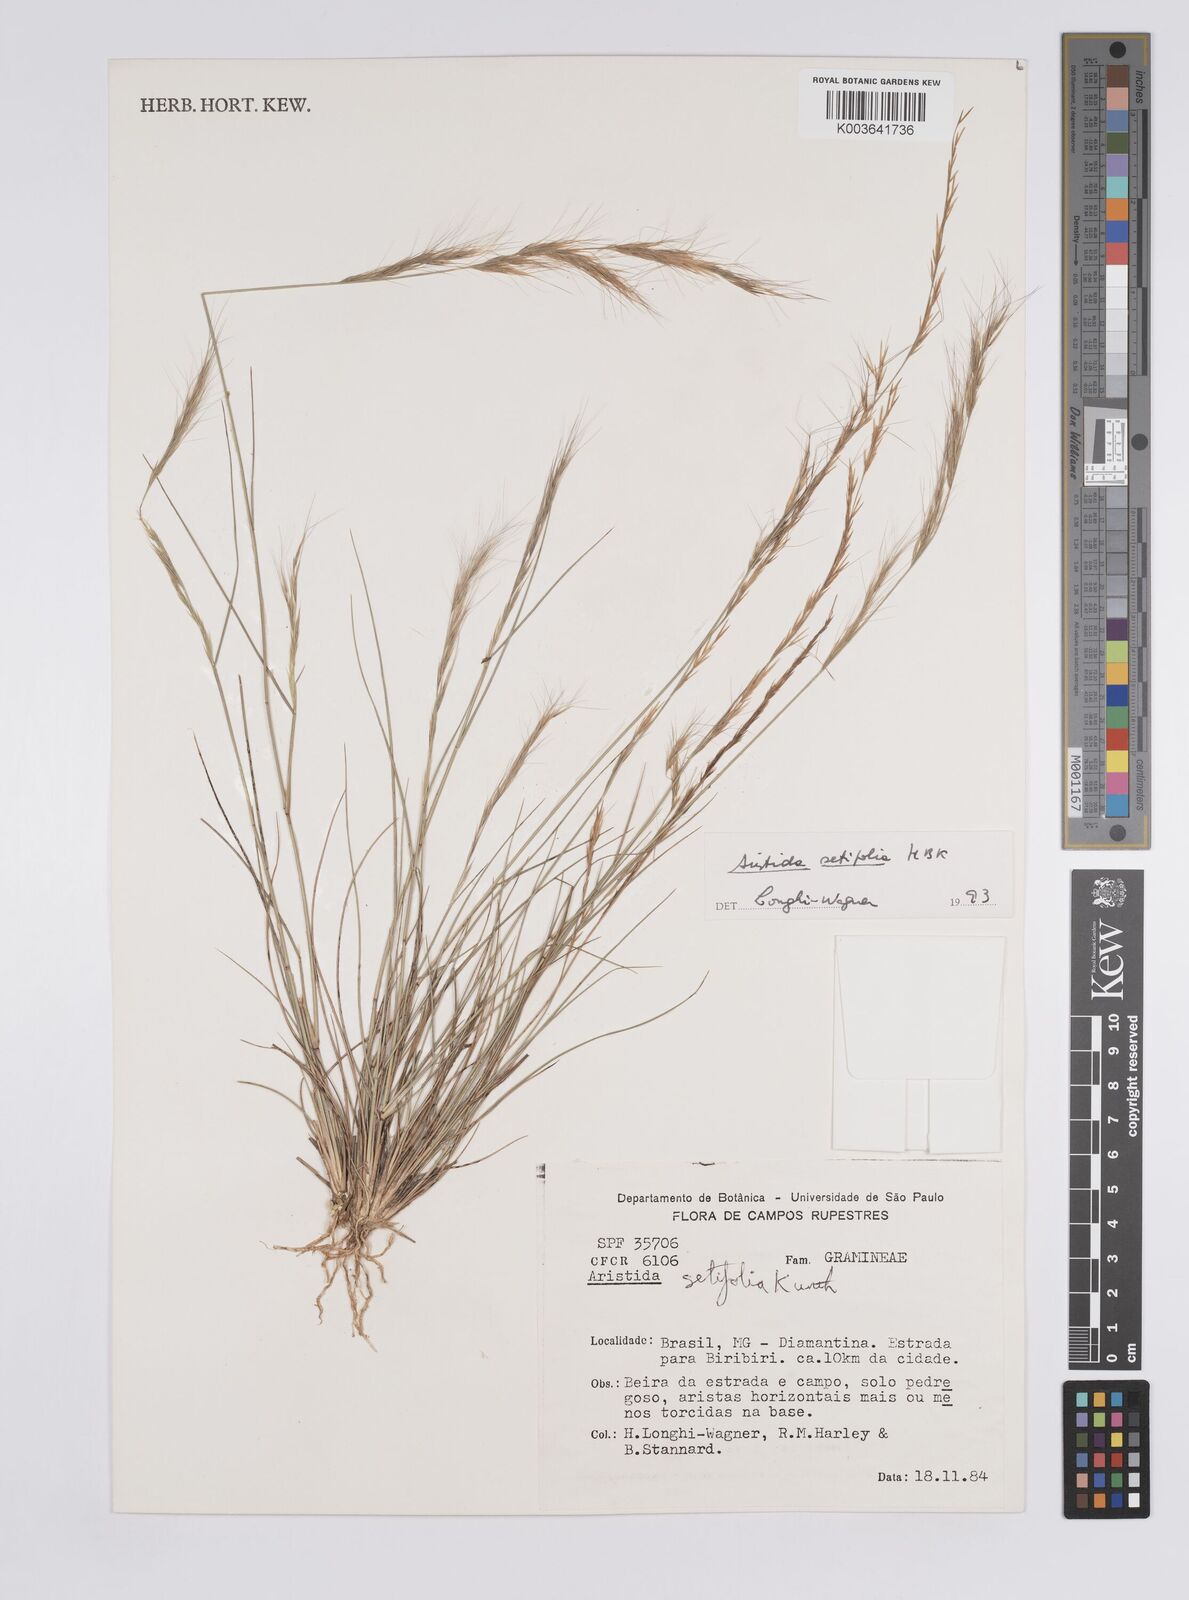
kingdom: Plantae
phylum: Tracheophyta
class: Liliopsida
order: Poales
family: Poaceae
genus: Aristida
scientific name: Aristida setifolia
